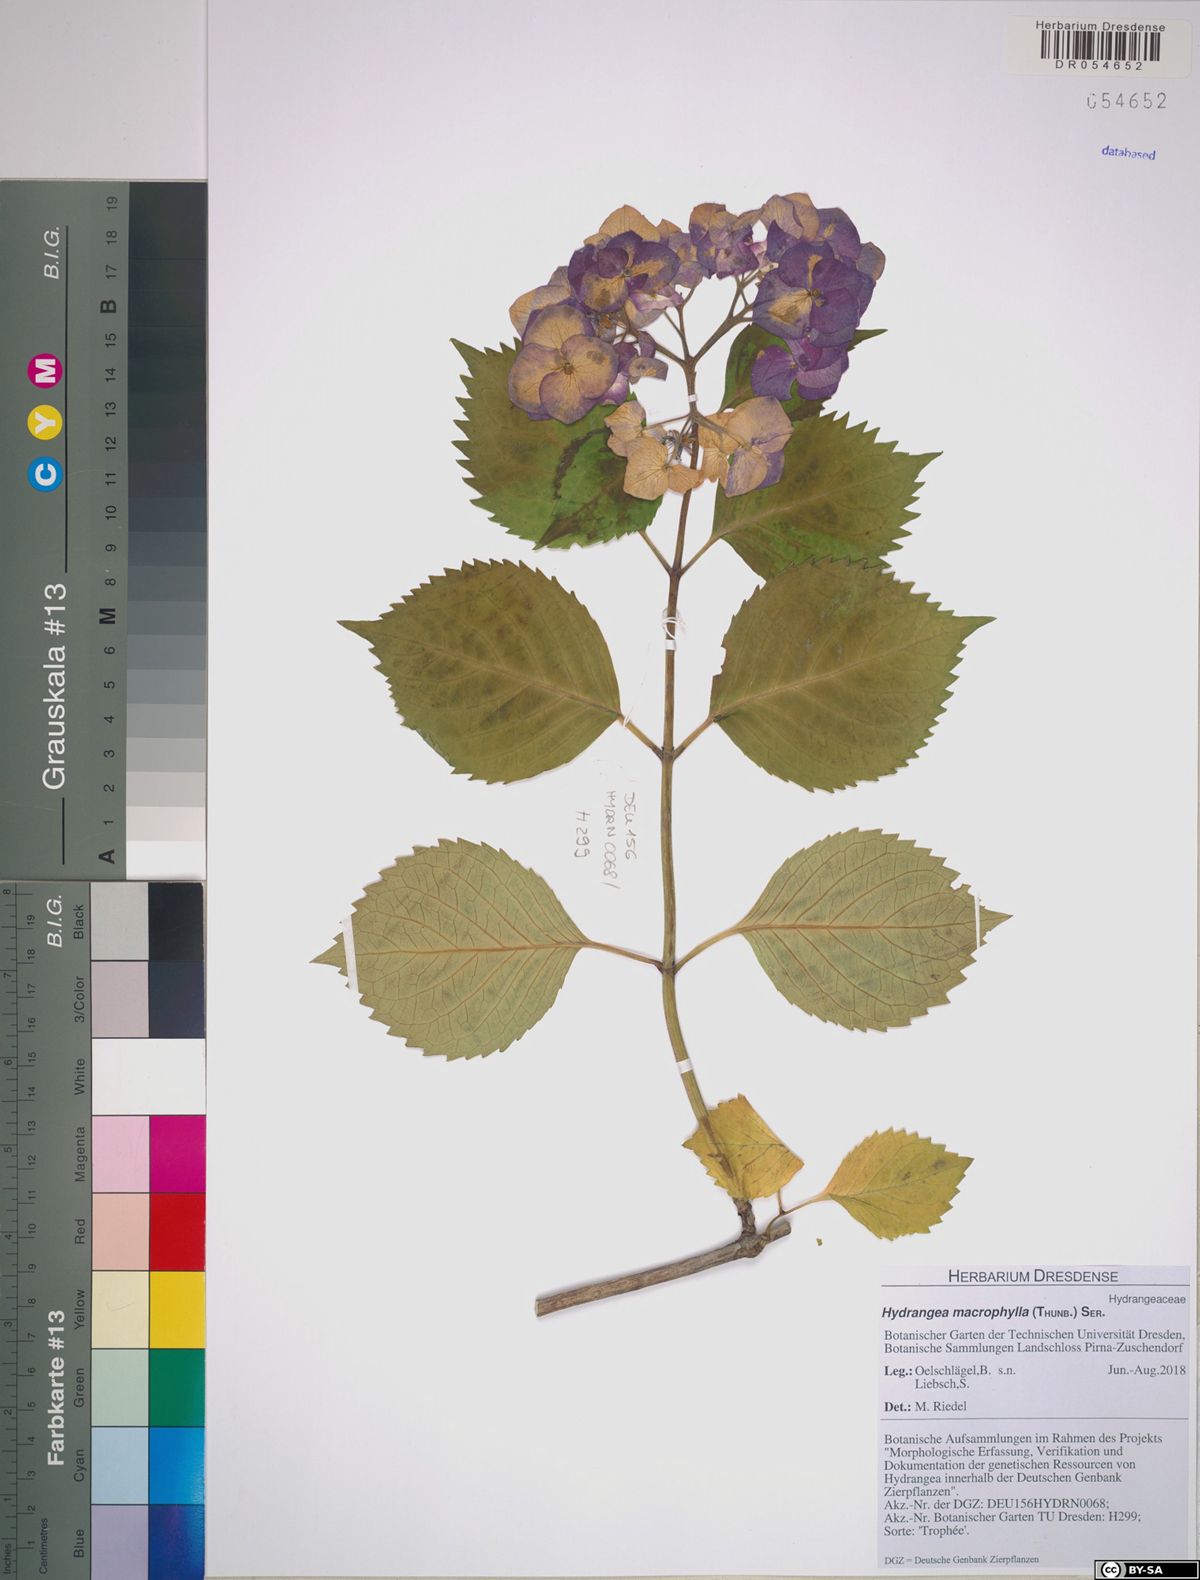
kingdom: Plantae
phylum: Tracheophyta
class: Magnoliopsida
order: Cornales
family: Hydrangeaceae
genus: Hydrangea
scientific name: Hydrangea macrophylla
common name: Hydrangea
